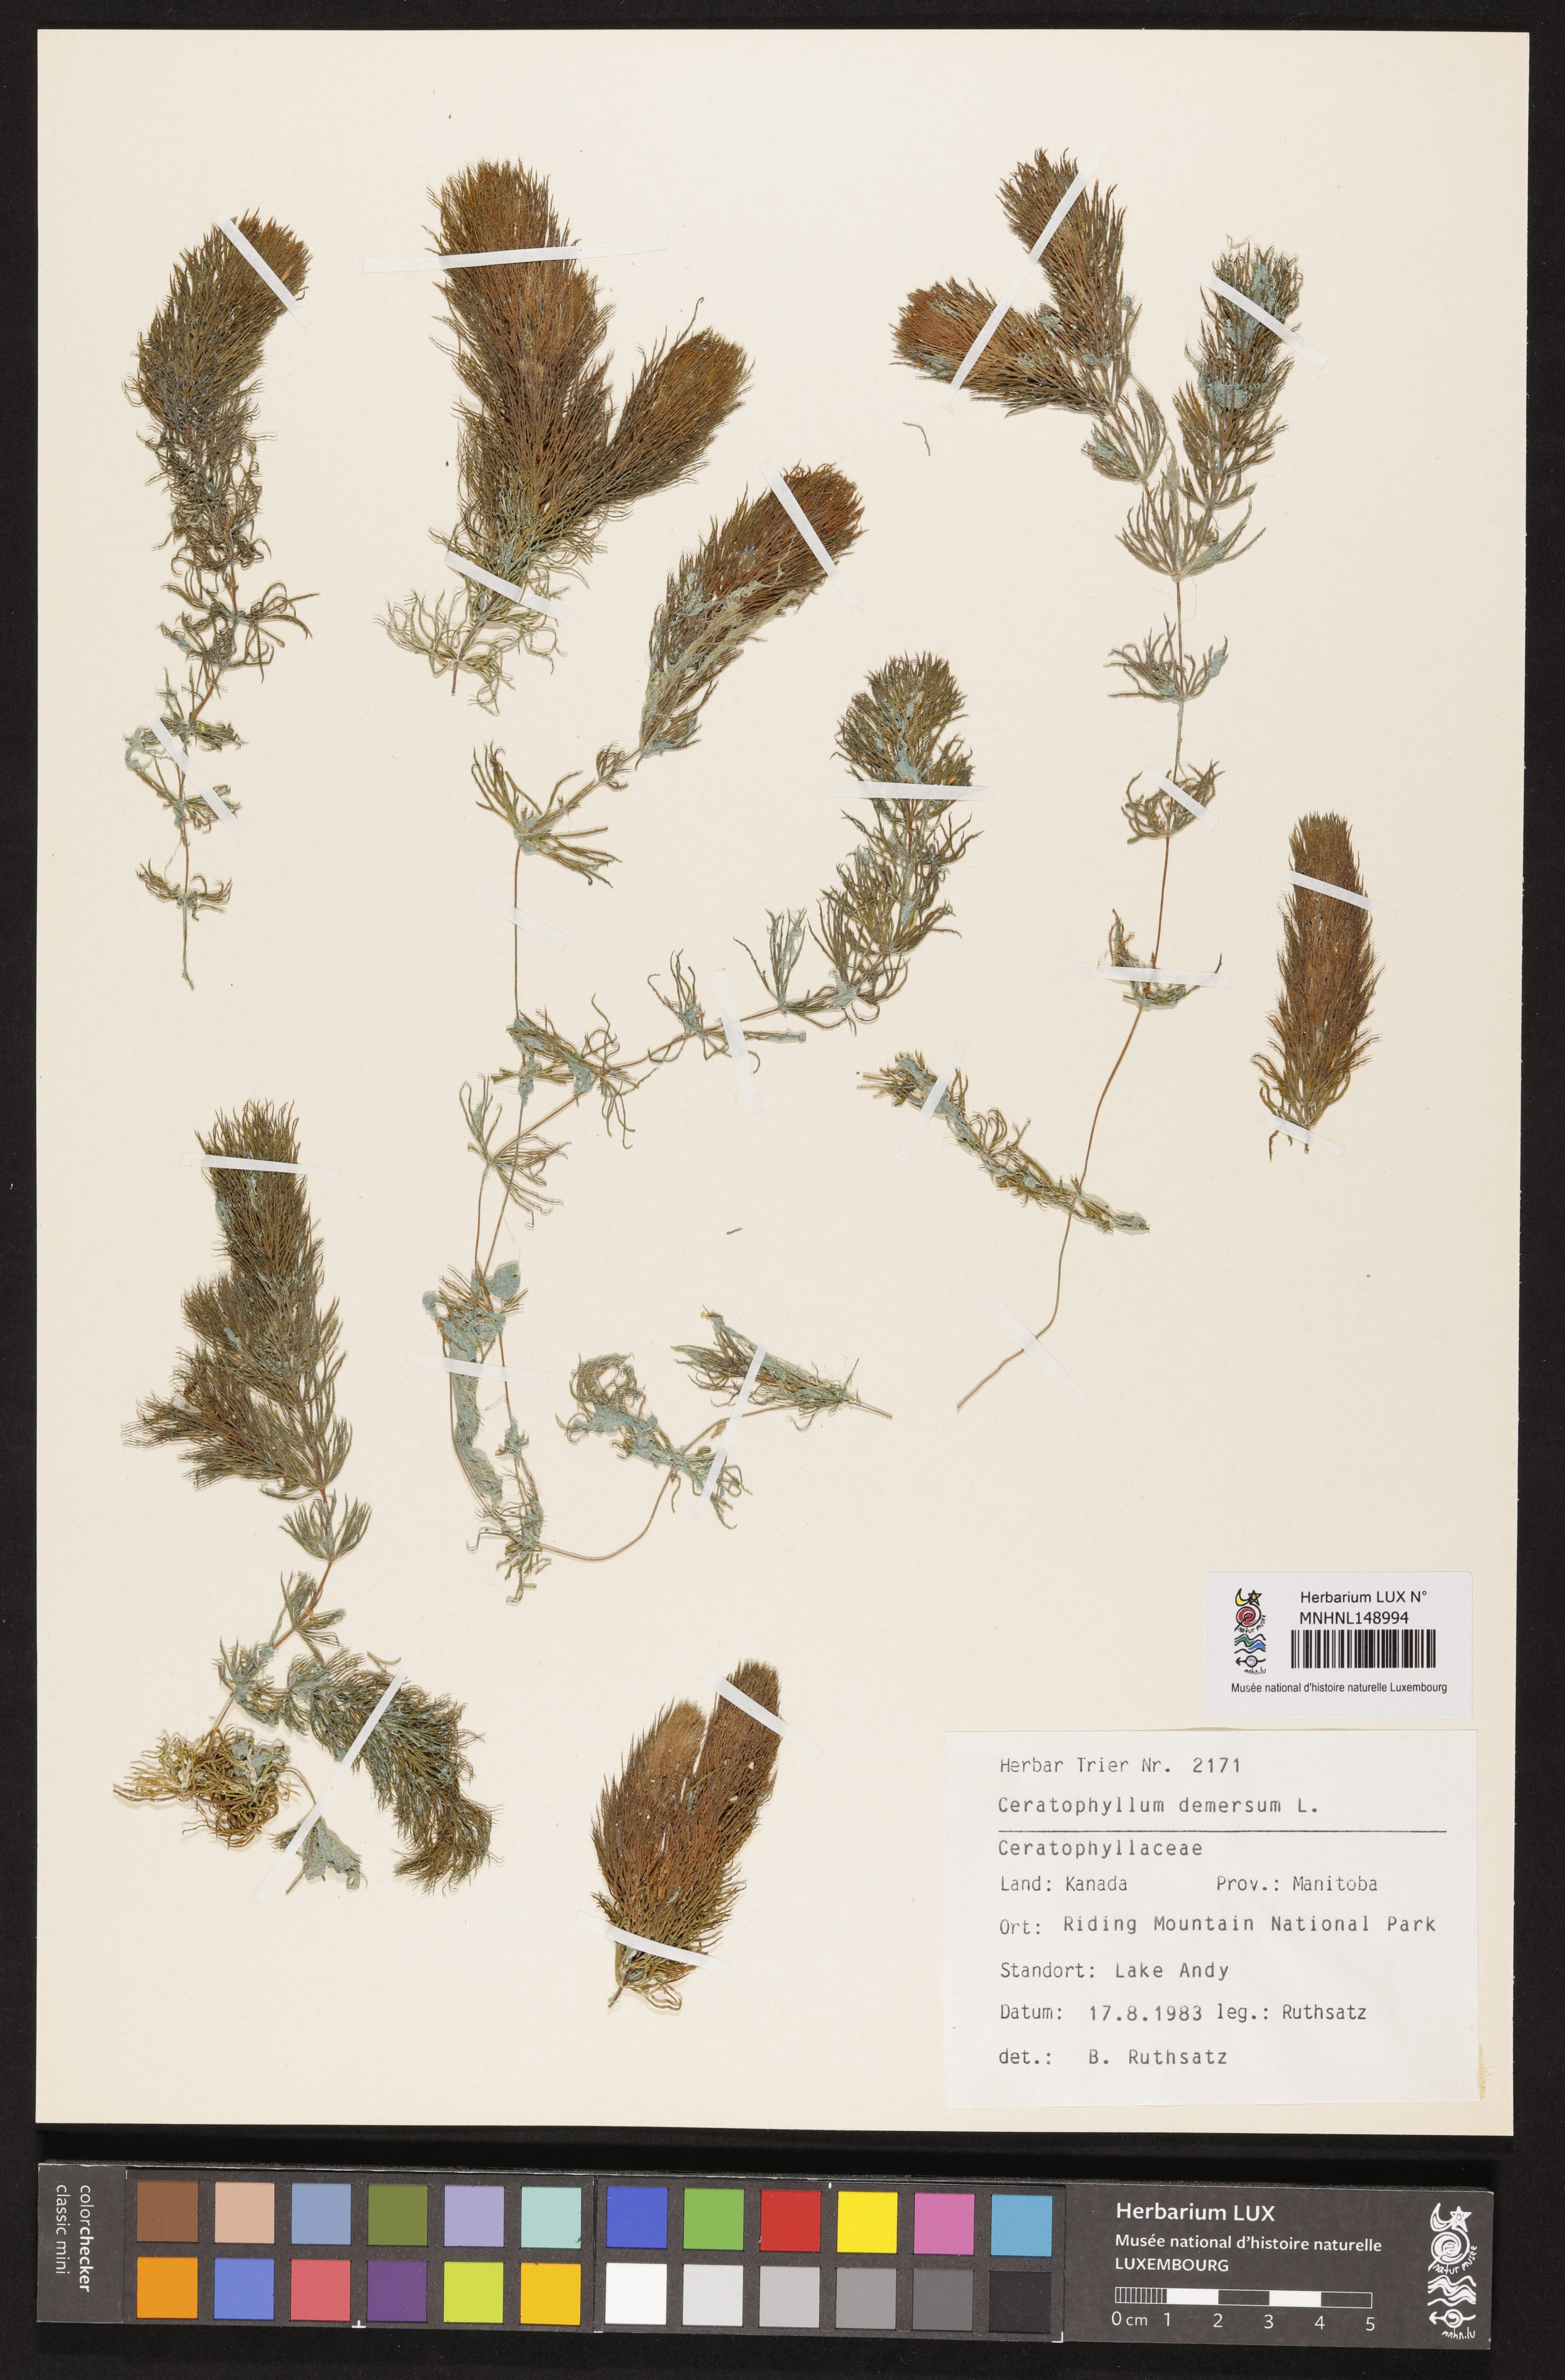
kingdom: Plantae
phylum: Tracheophyta
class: Magnoliopsida
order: Ceratophyllales
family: Ceratophyllaceae
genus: Ceratophyllum
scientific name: Ceratophyllum demersum
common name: Rigid hornwort
